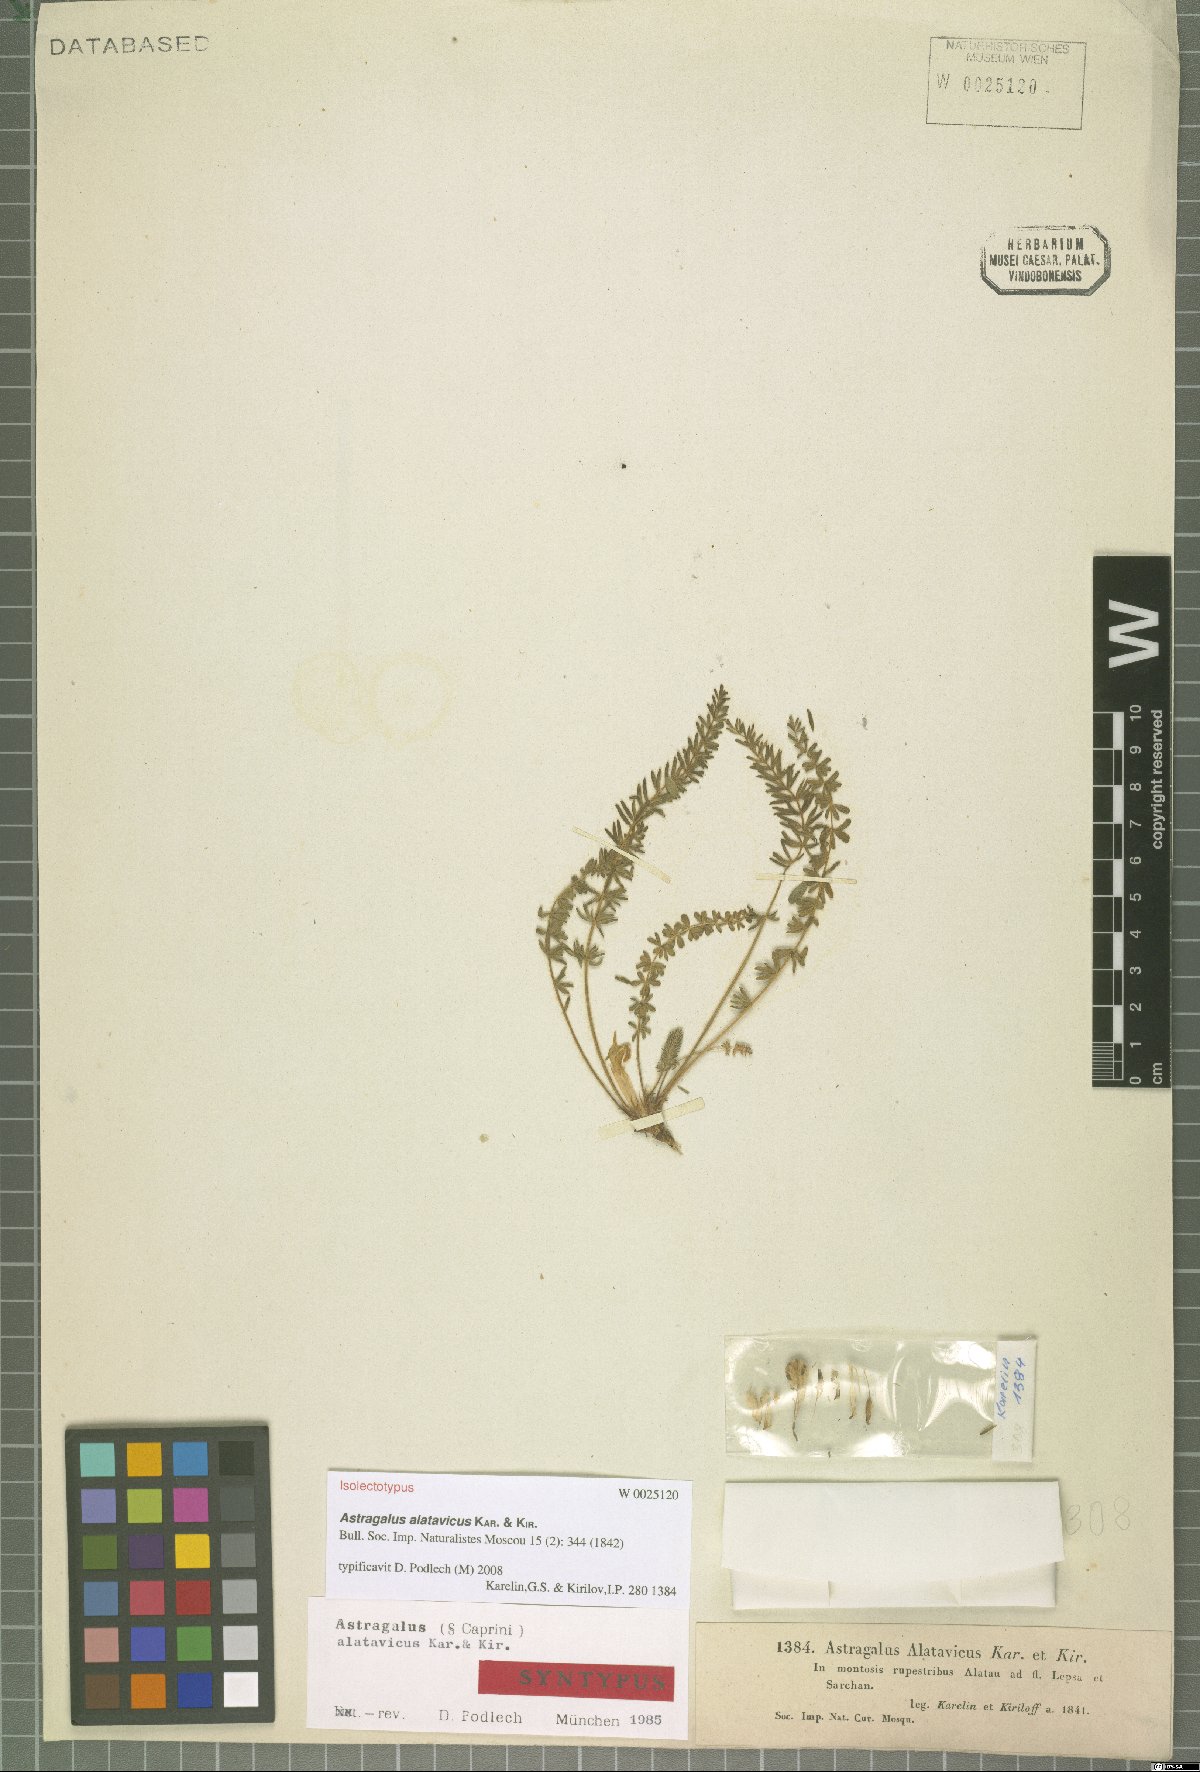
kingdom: Plantae
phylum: Tracheophyta
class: Magnoliopsida
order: Fabales
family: Fabaceae
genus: Astragalus
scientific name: Astragalus alatavicus
